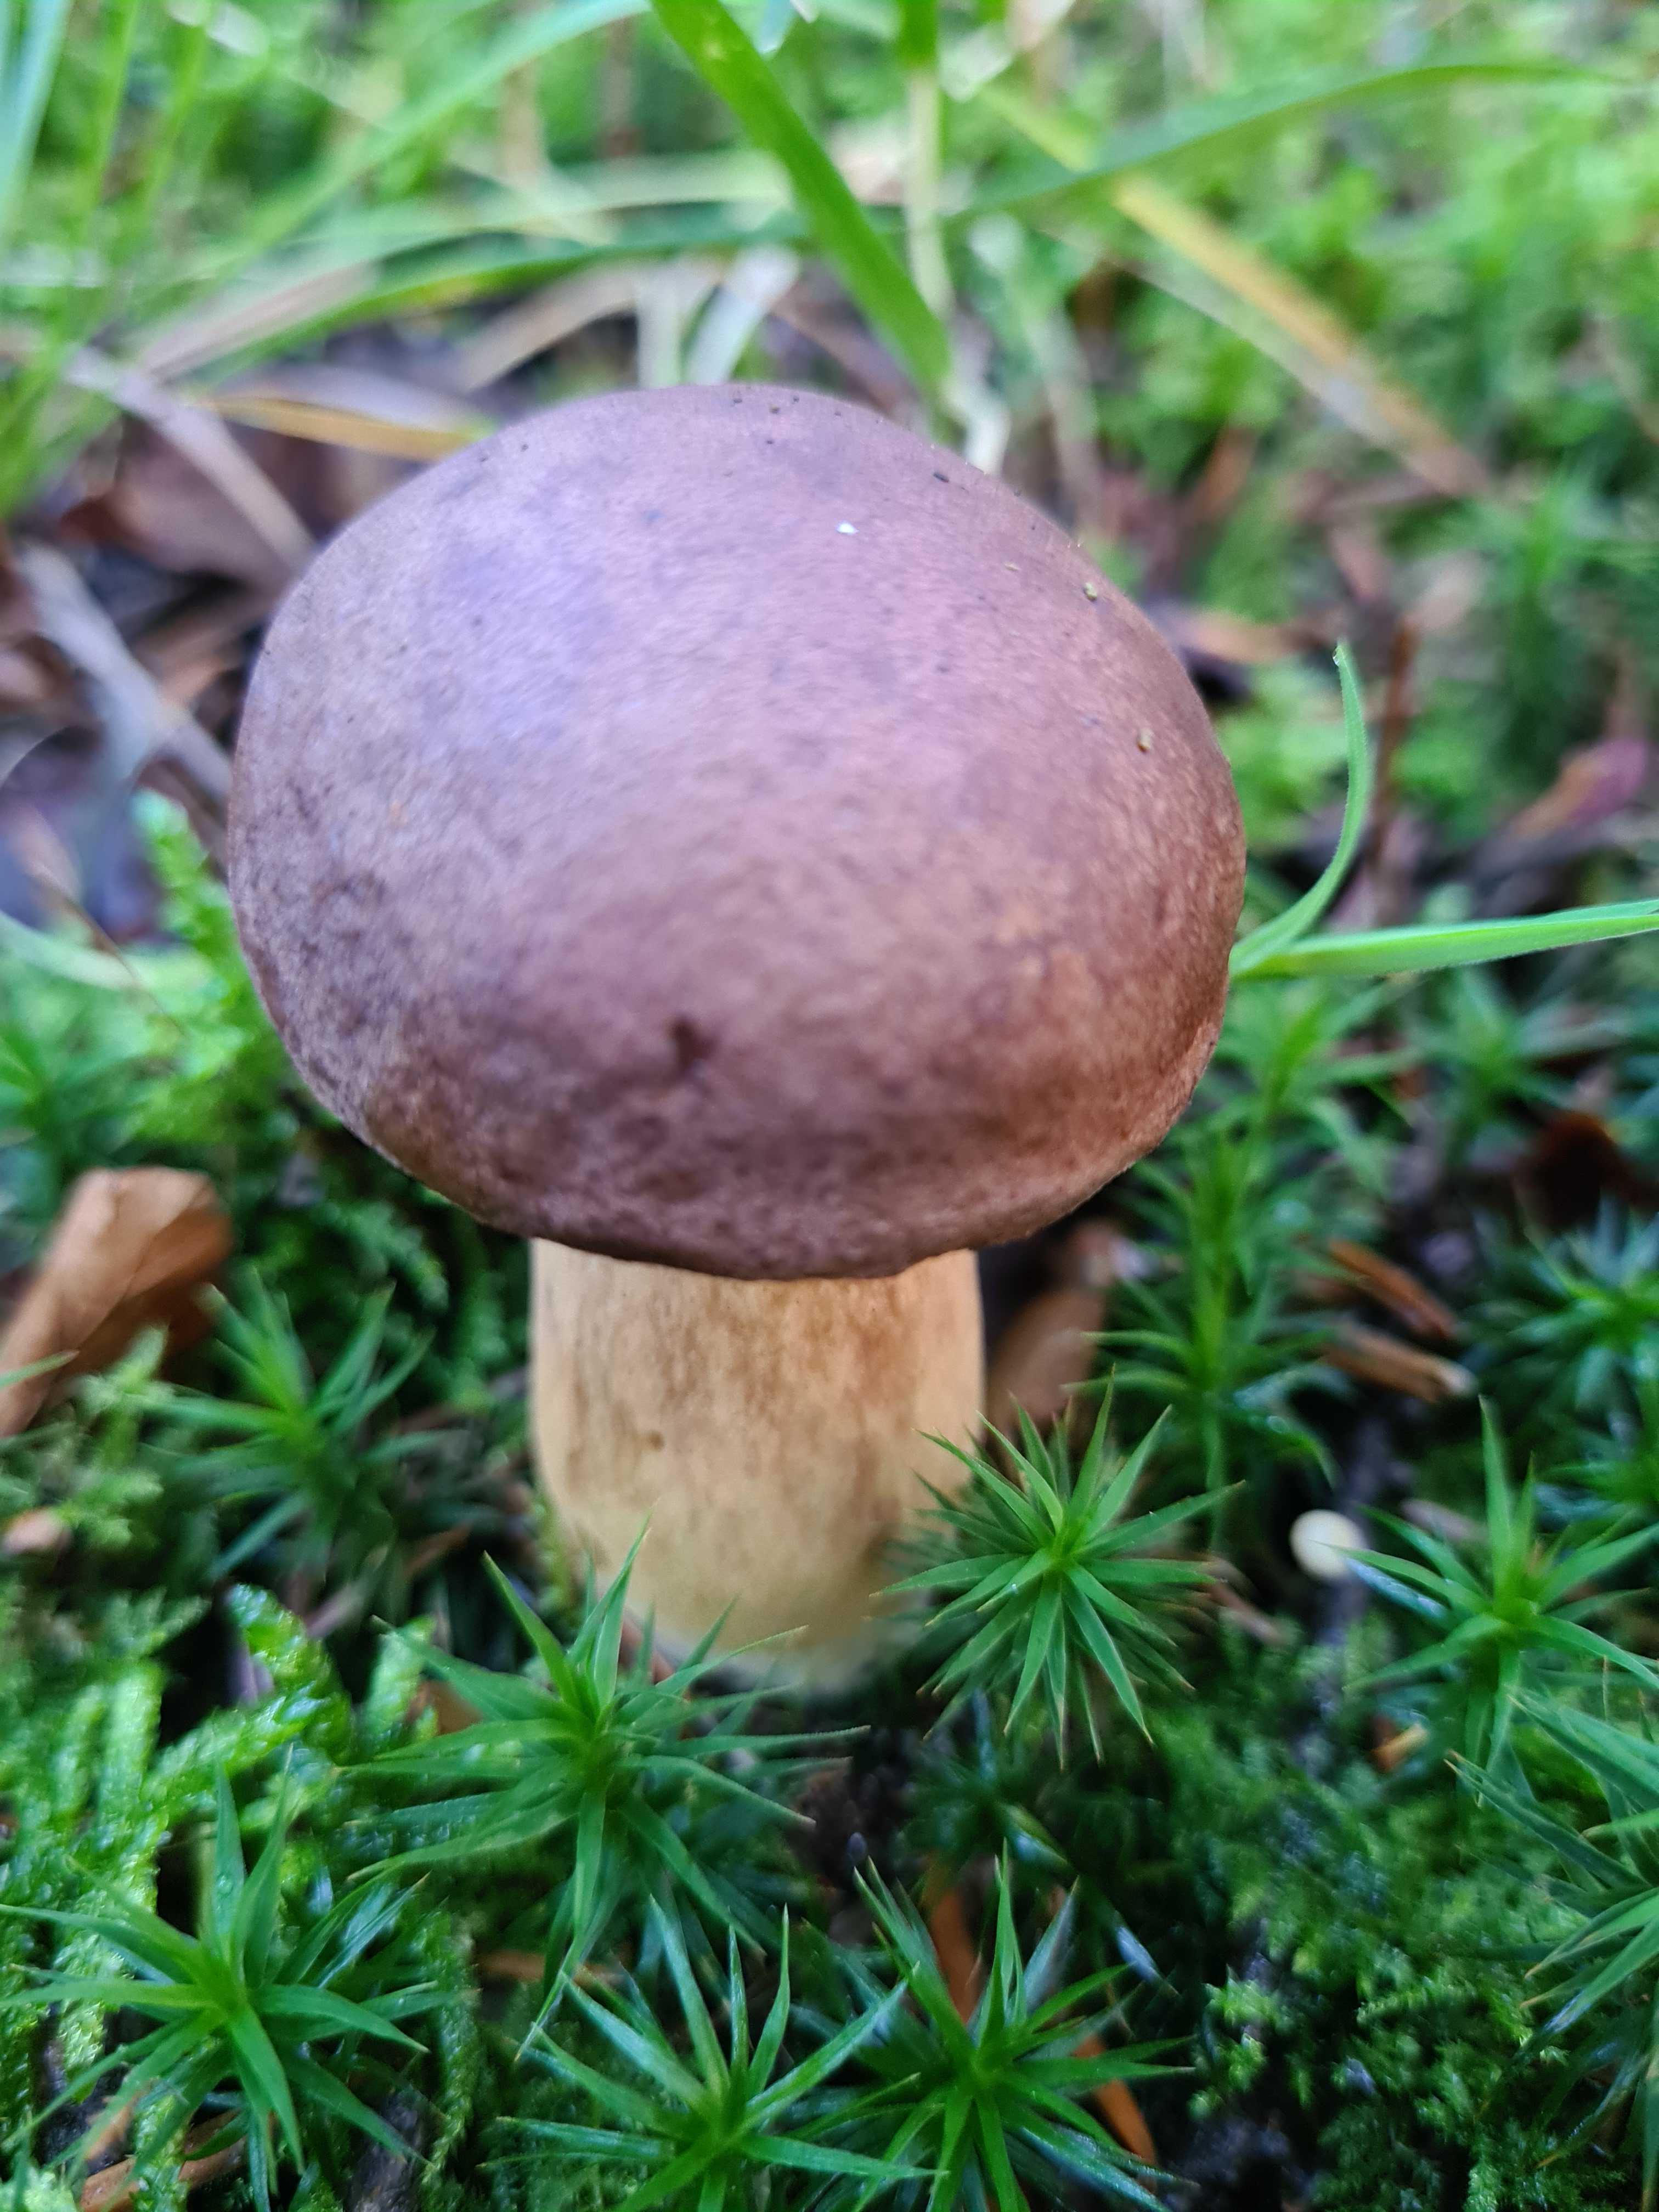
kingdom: Fungi
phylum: Basidiomycota
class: Agaricomycetes
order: Boletales
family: Boletaceae
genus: Imleria
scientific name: Imleria badia
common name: brunstokket rørhat
